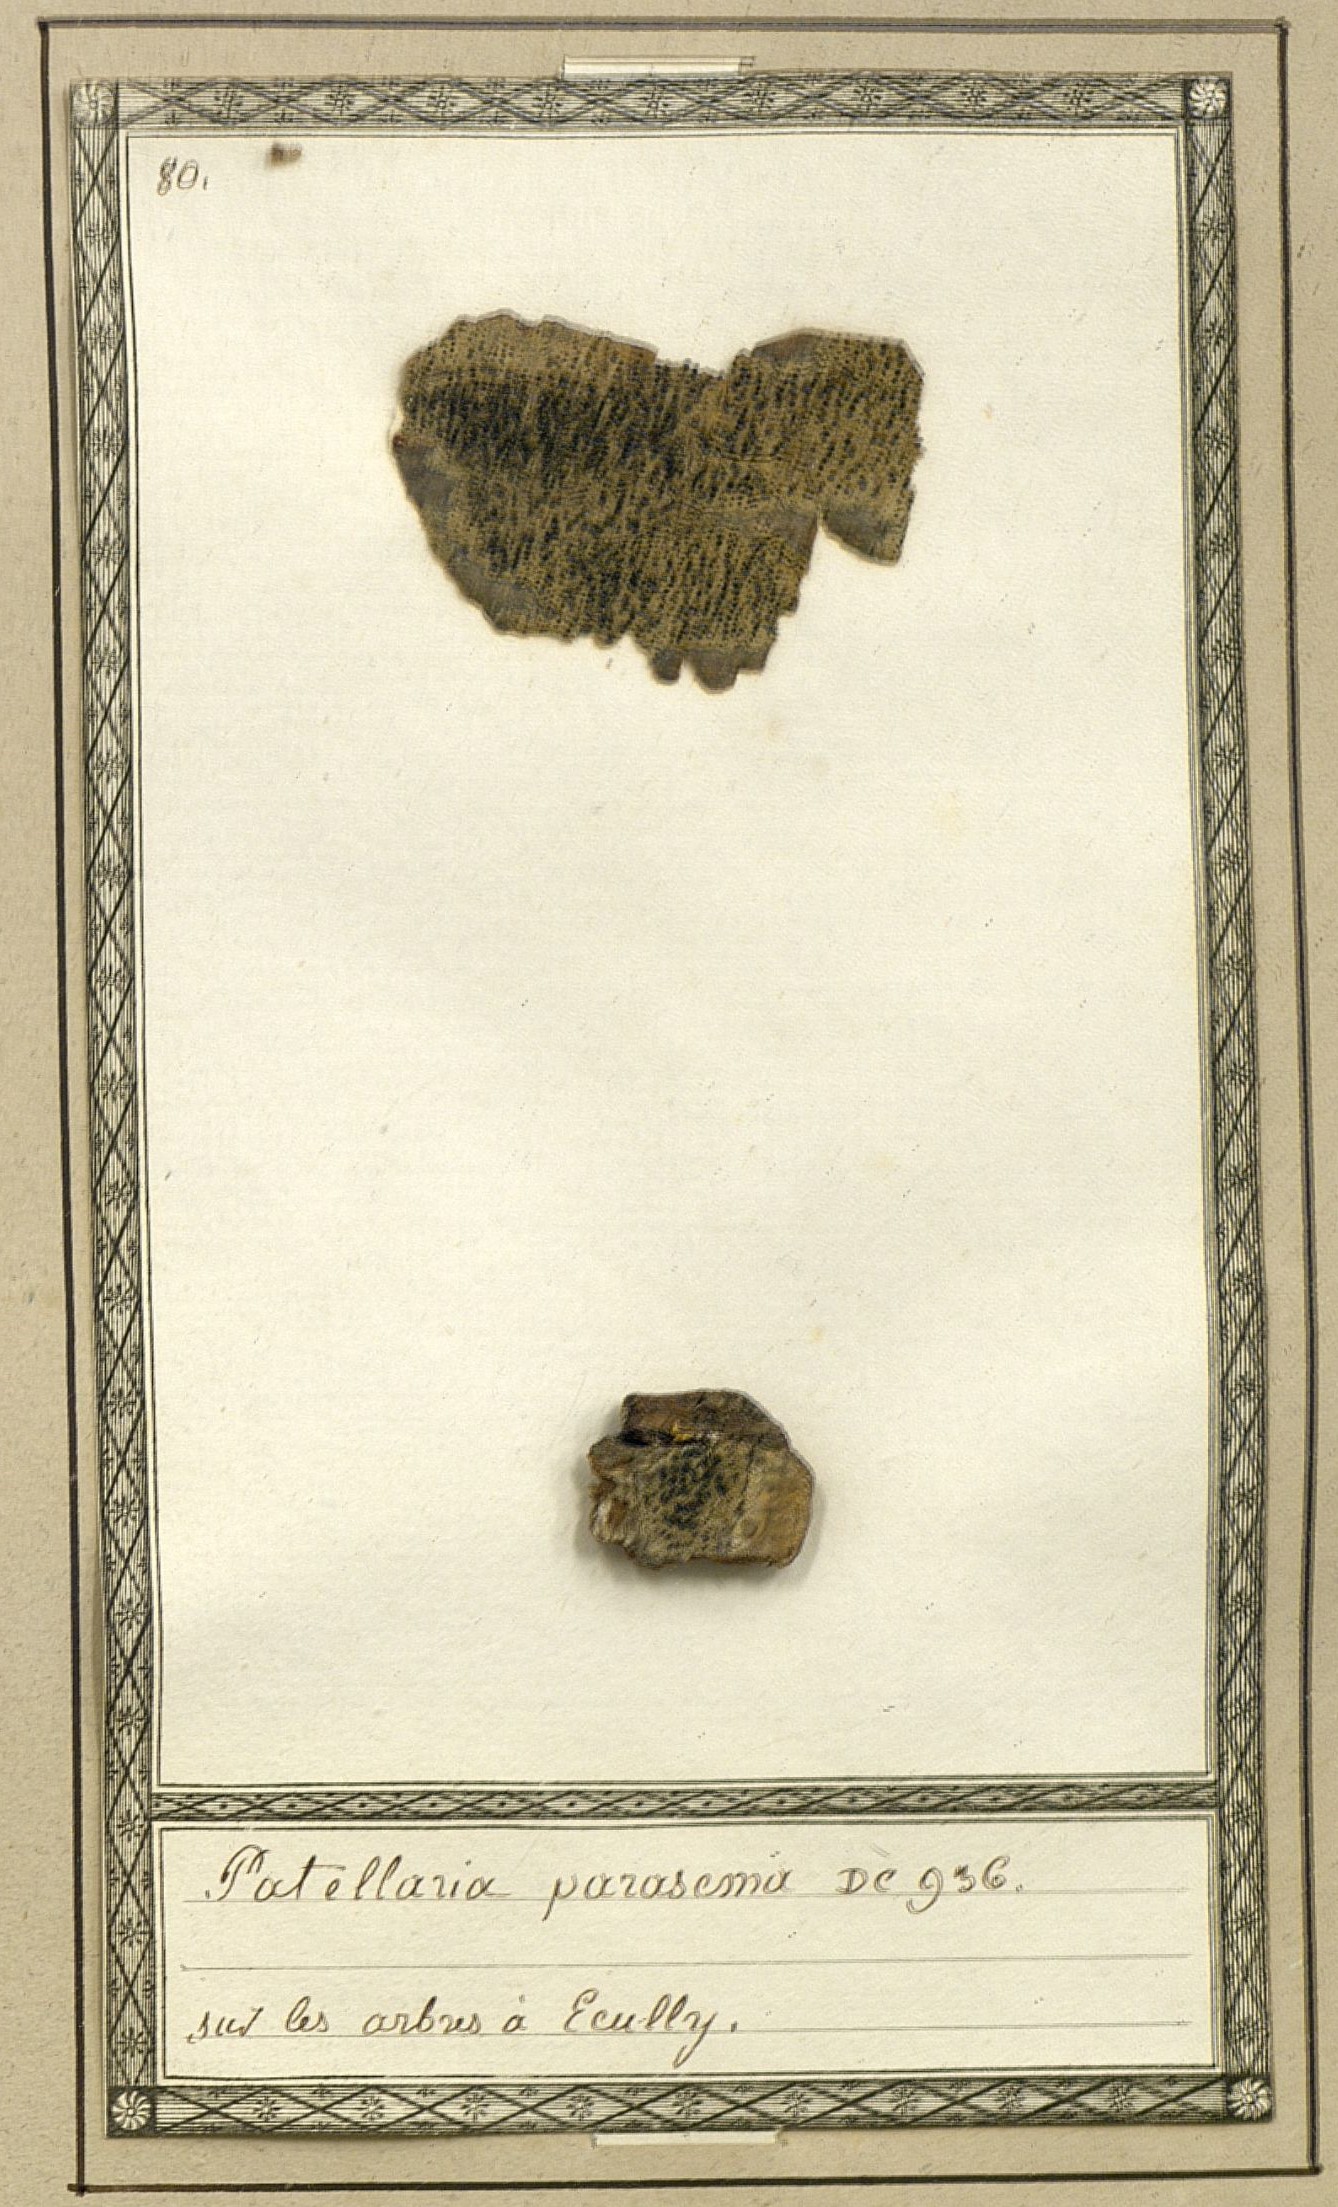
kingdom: Fungi
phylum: Ascomycota
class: Lecanoromycetes
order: Lecideales
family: Lecideaceae
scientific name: Lecideaceae
